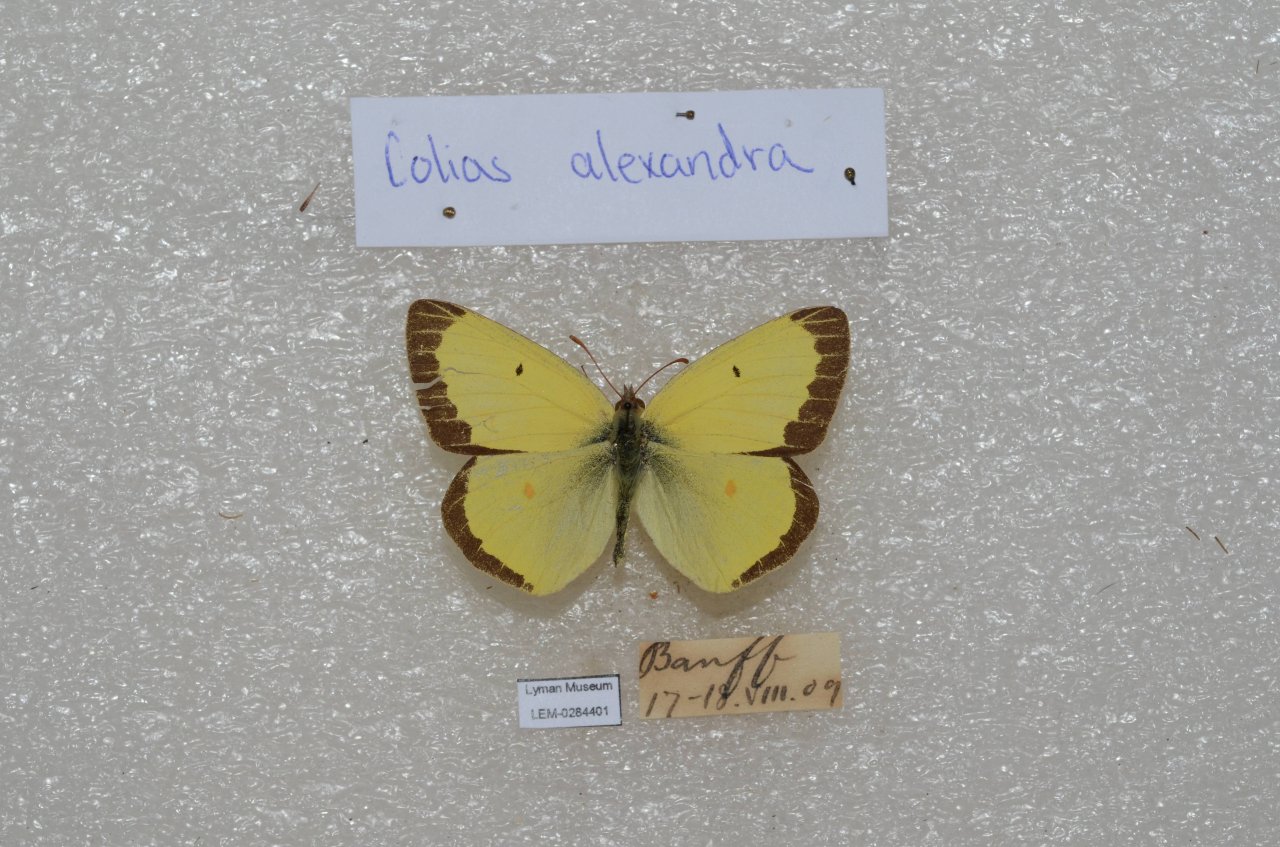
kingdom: Animalia
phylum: Arthropoda
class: Insecta
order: Lepidoptera
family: Pieridae
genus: Colias
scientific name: Colias alexandra
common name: Queen Alexandra's Sulphur
